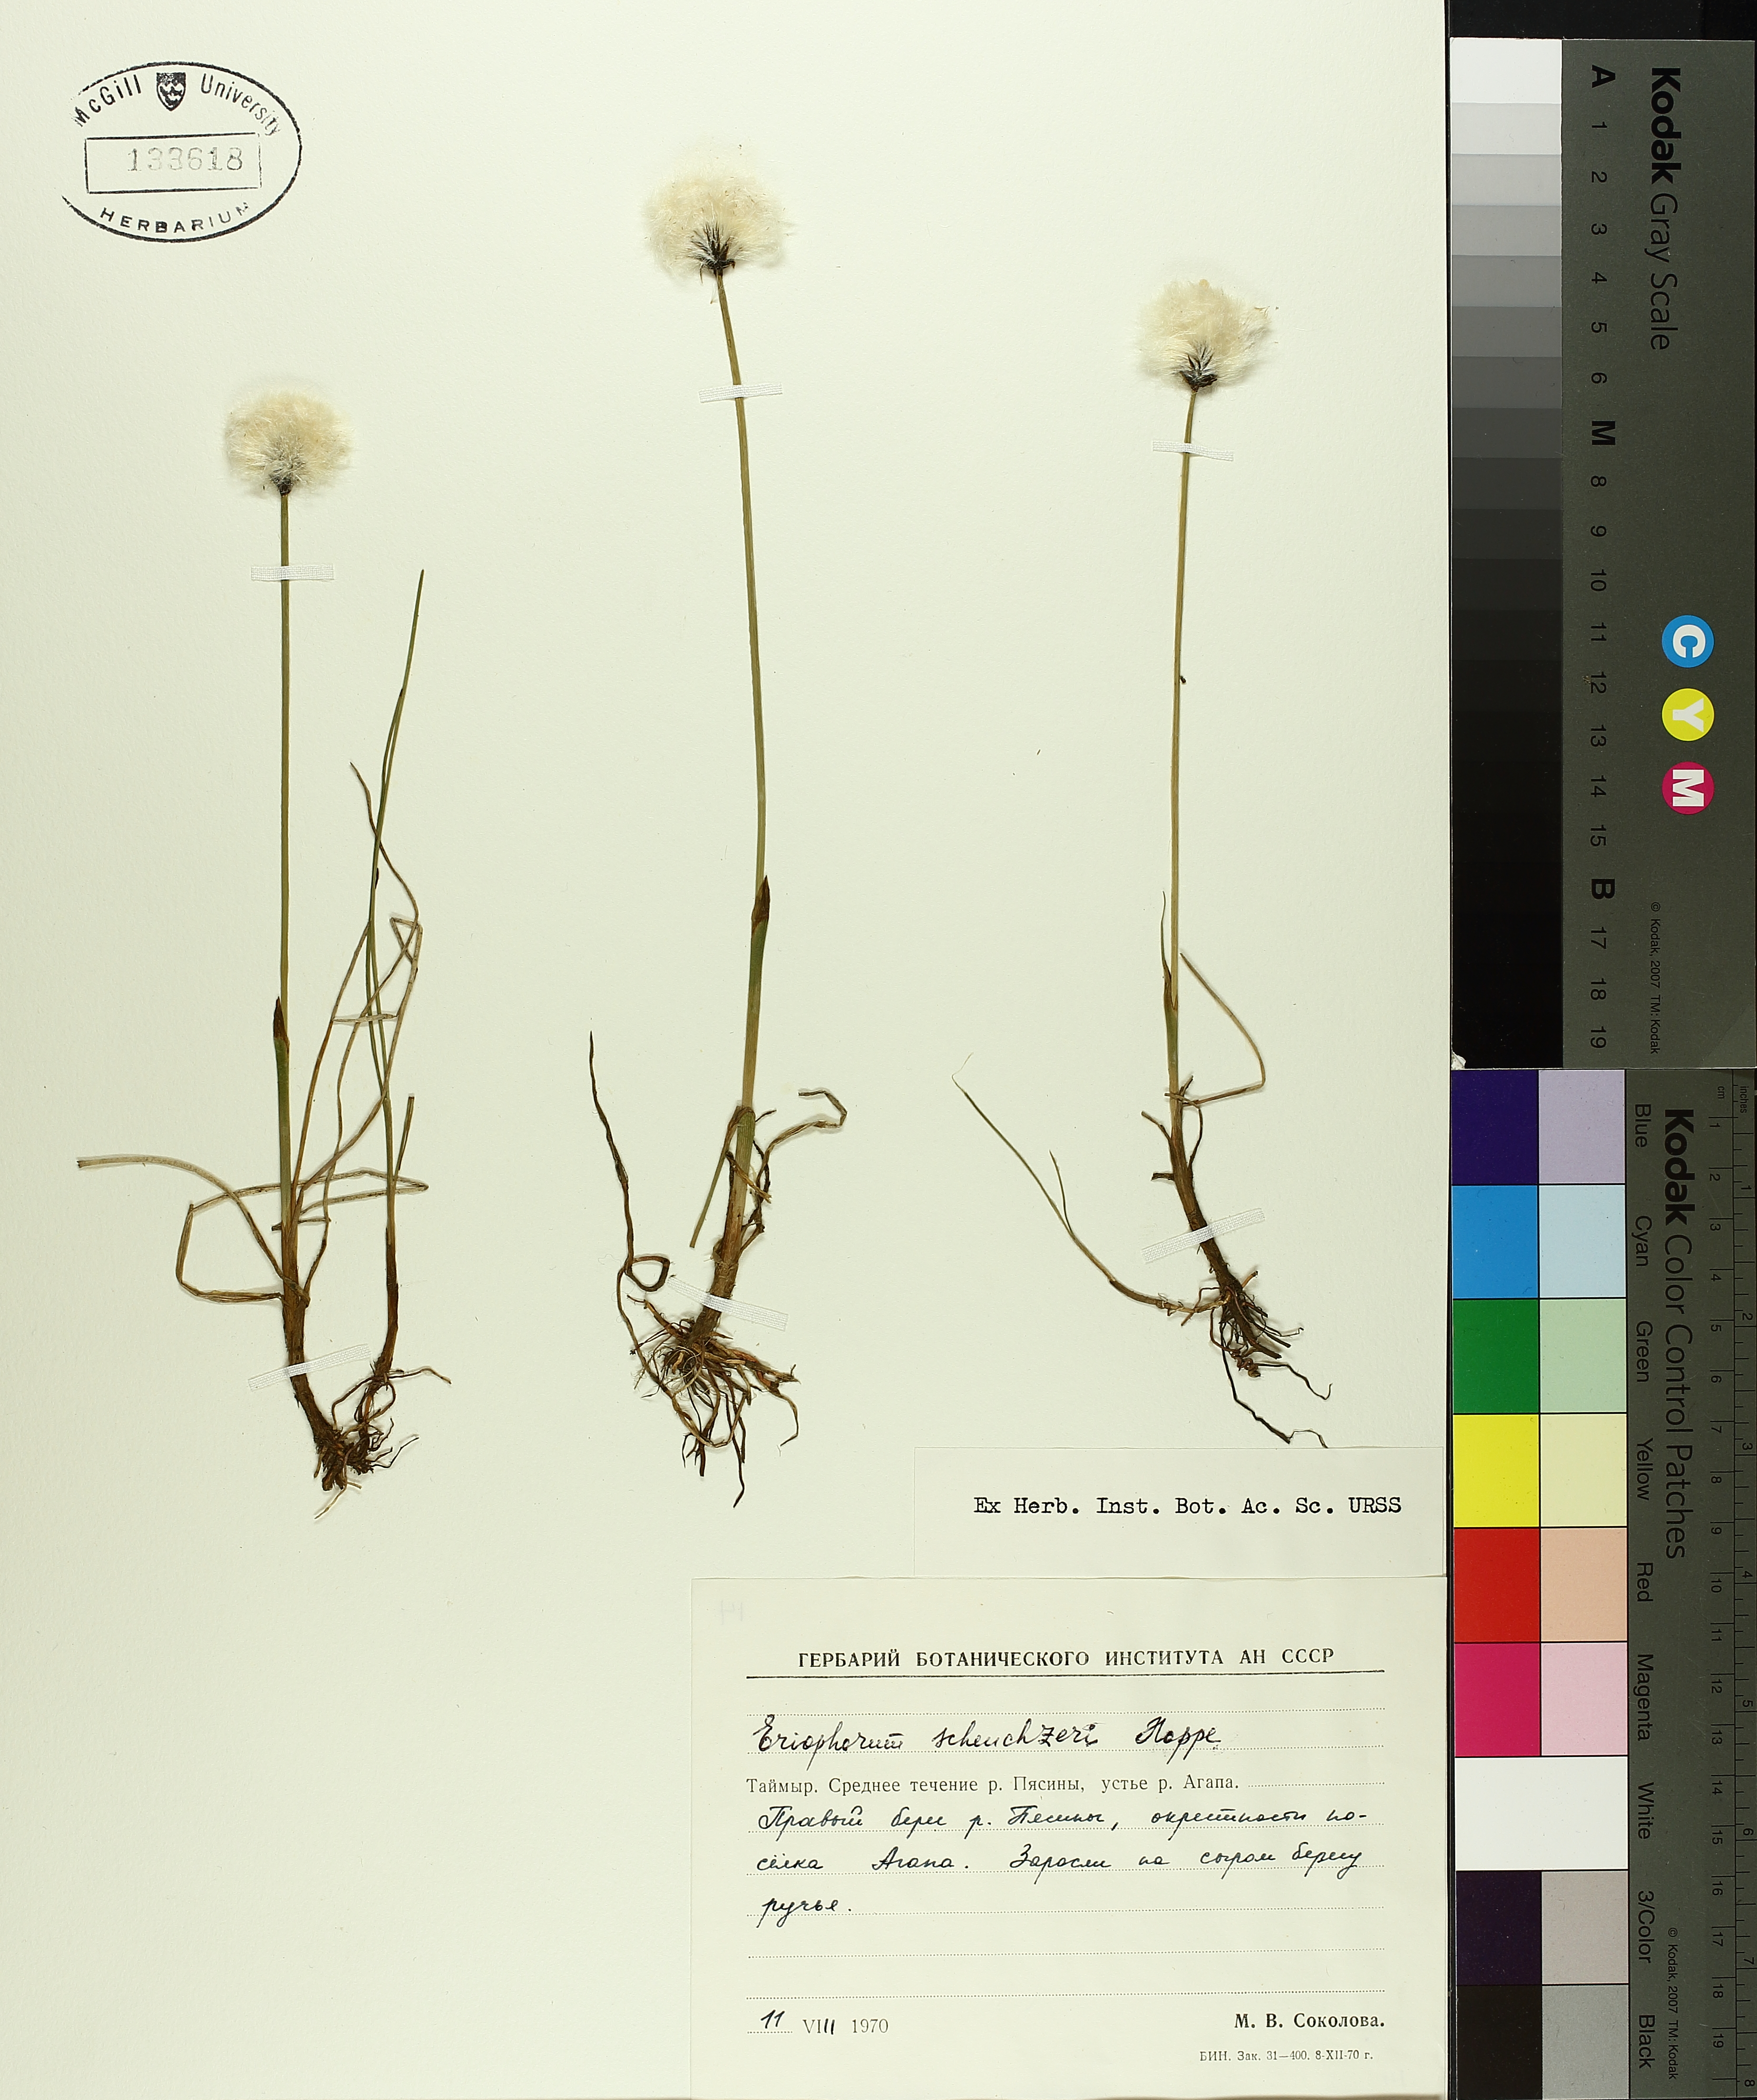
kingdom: Plantae
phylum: Tracheophyta
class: Liliopsida
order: Poales
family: Cyperaceae
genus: Eriophorum
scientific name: Eriophorum scheuchzeri
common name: Scheuchzer's cottongrass
